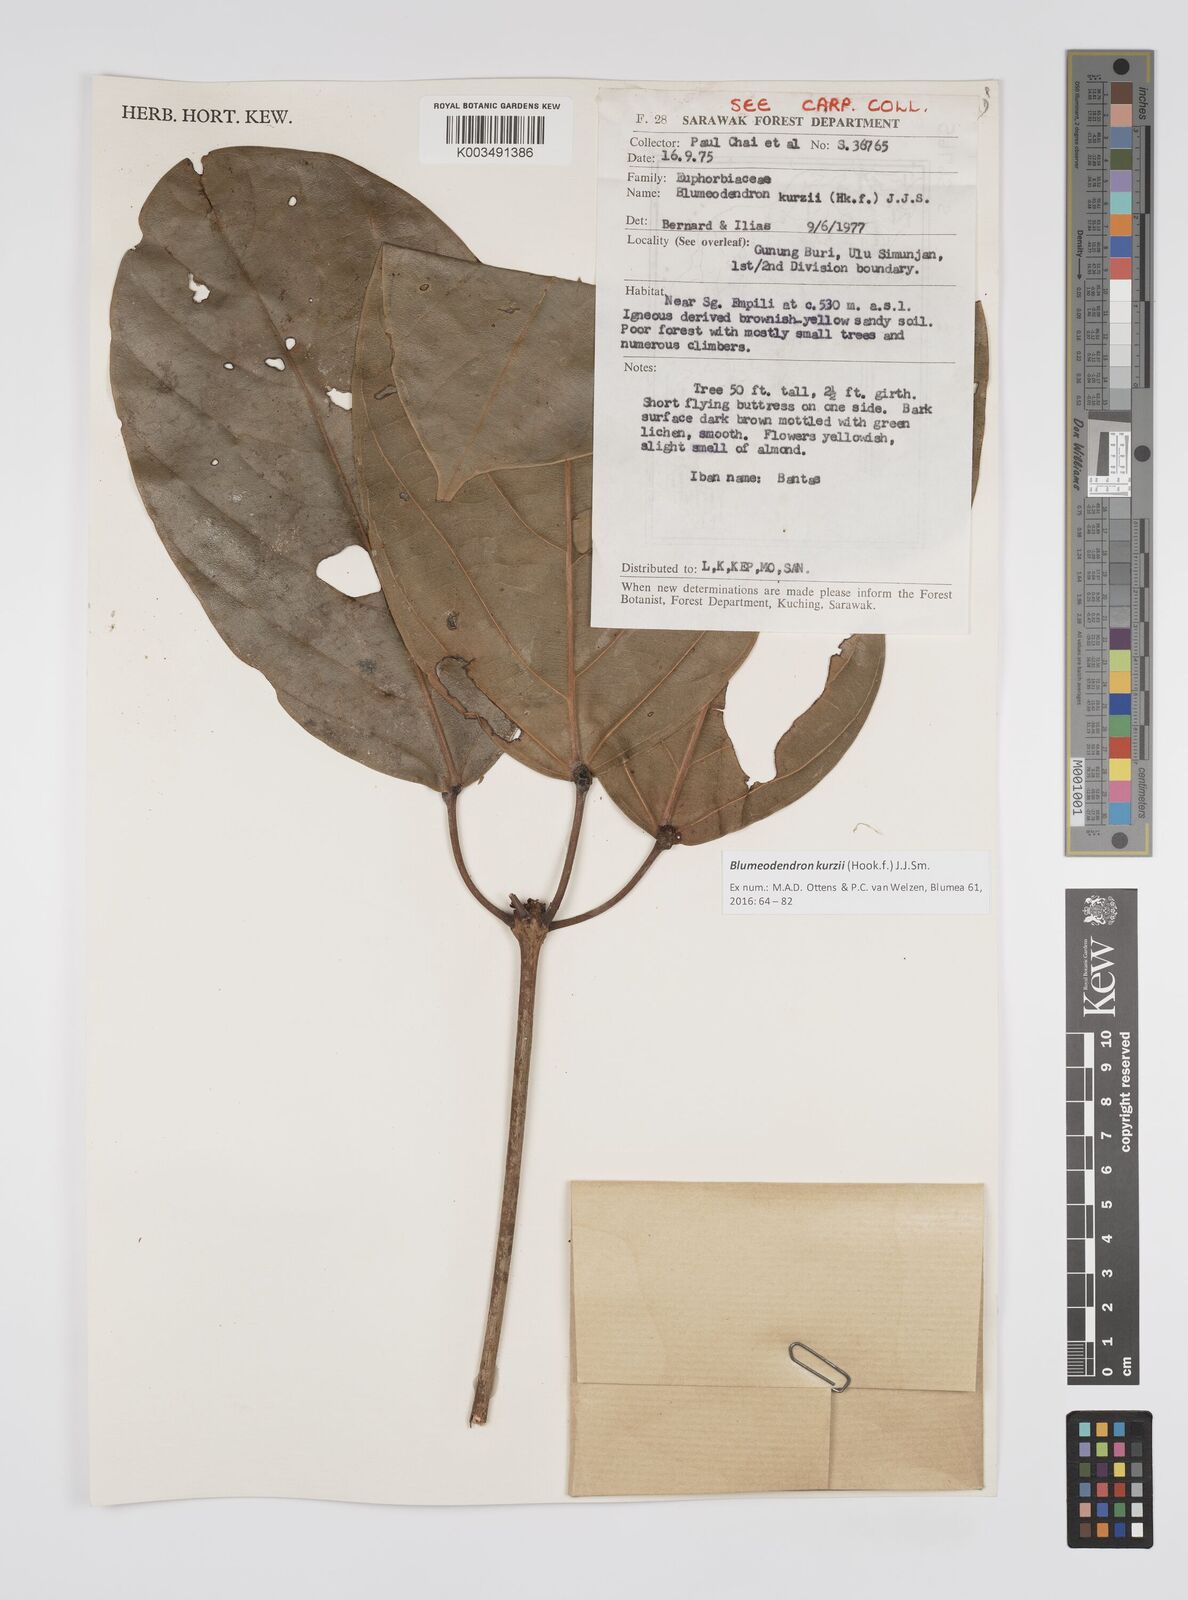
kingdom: Plantae
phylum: Tracheophyta
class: Magnoliopsida
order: Malpighiales
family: Euphorbiaceae
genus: Blumeodendron
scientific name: Blumeodendron kurzii
